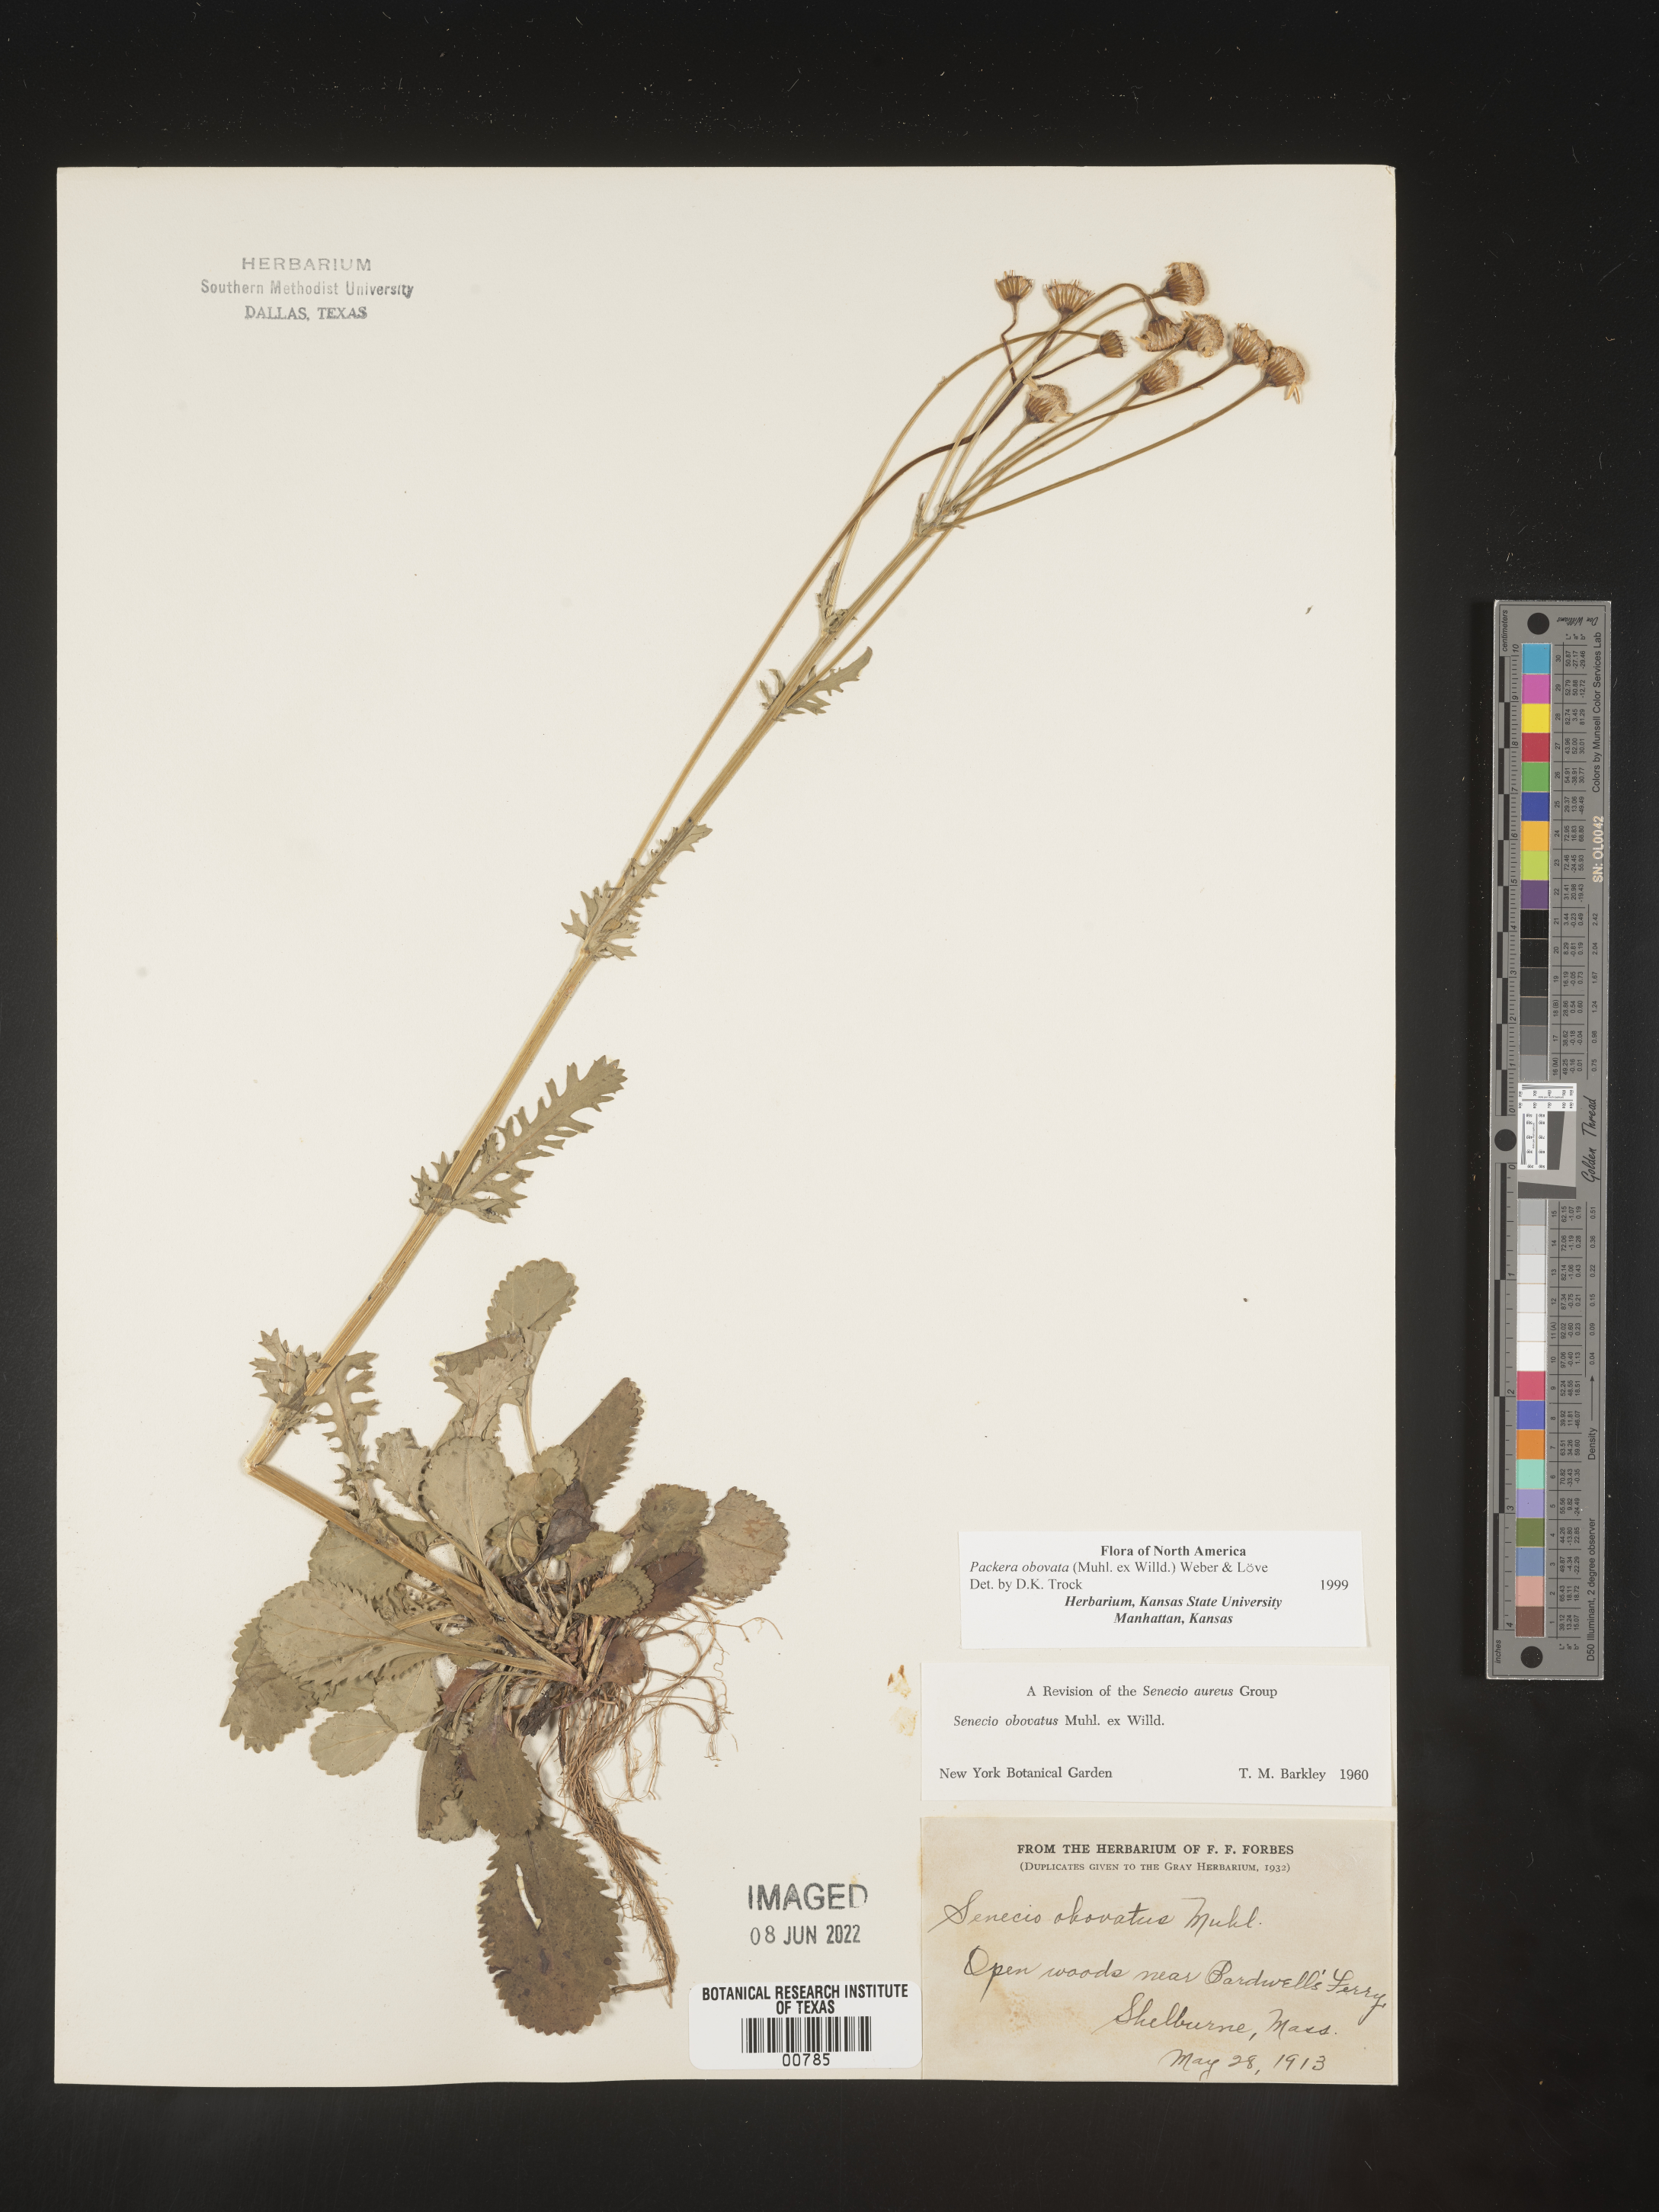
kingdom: Plantae
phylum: Tracheophyta
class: Magnoliopsida
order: Asterales
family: Asteraceae
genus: Packera
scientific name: Packera obovata
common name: Round-leaf ragwort
